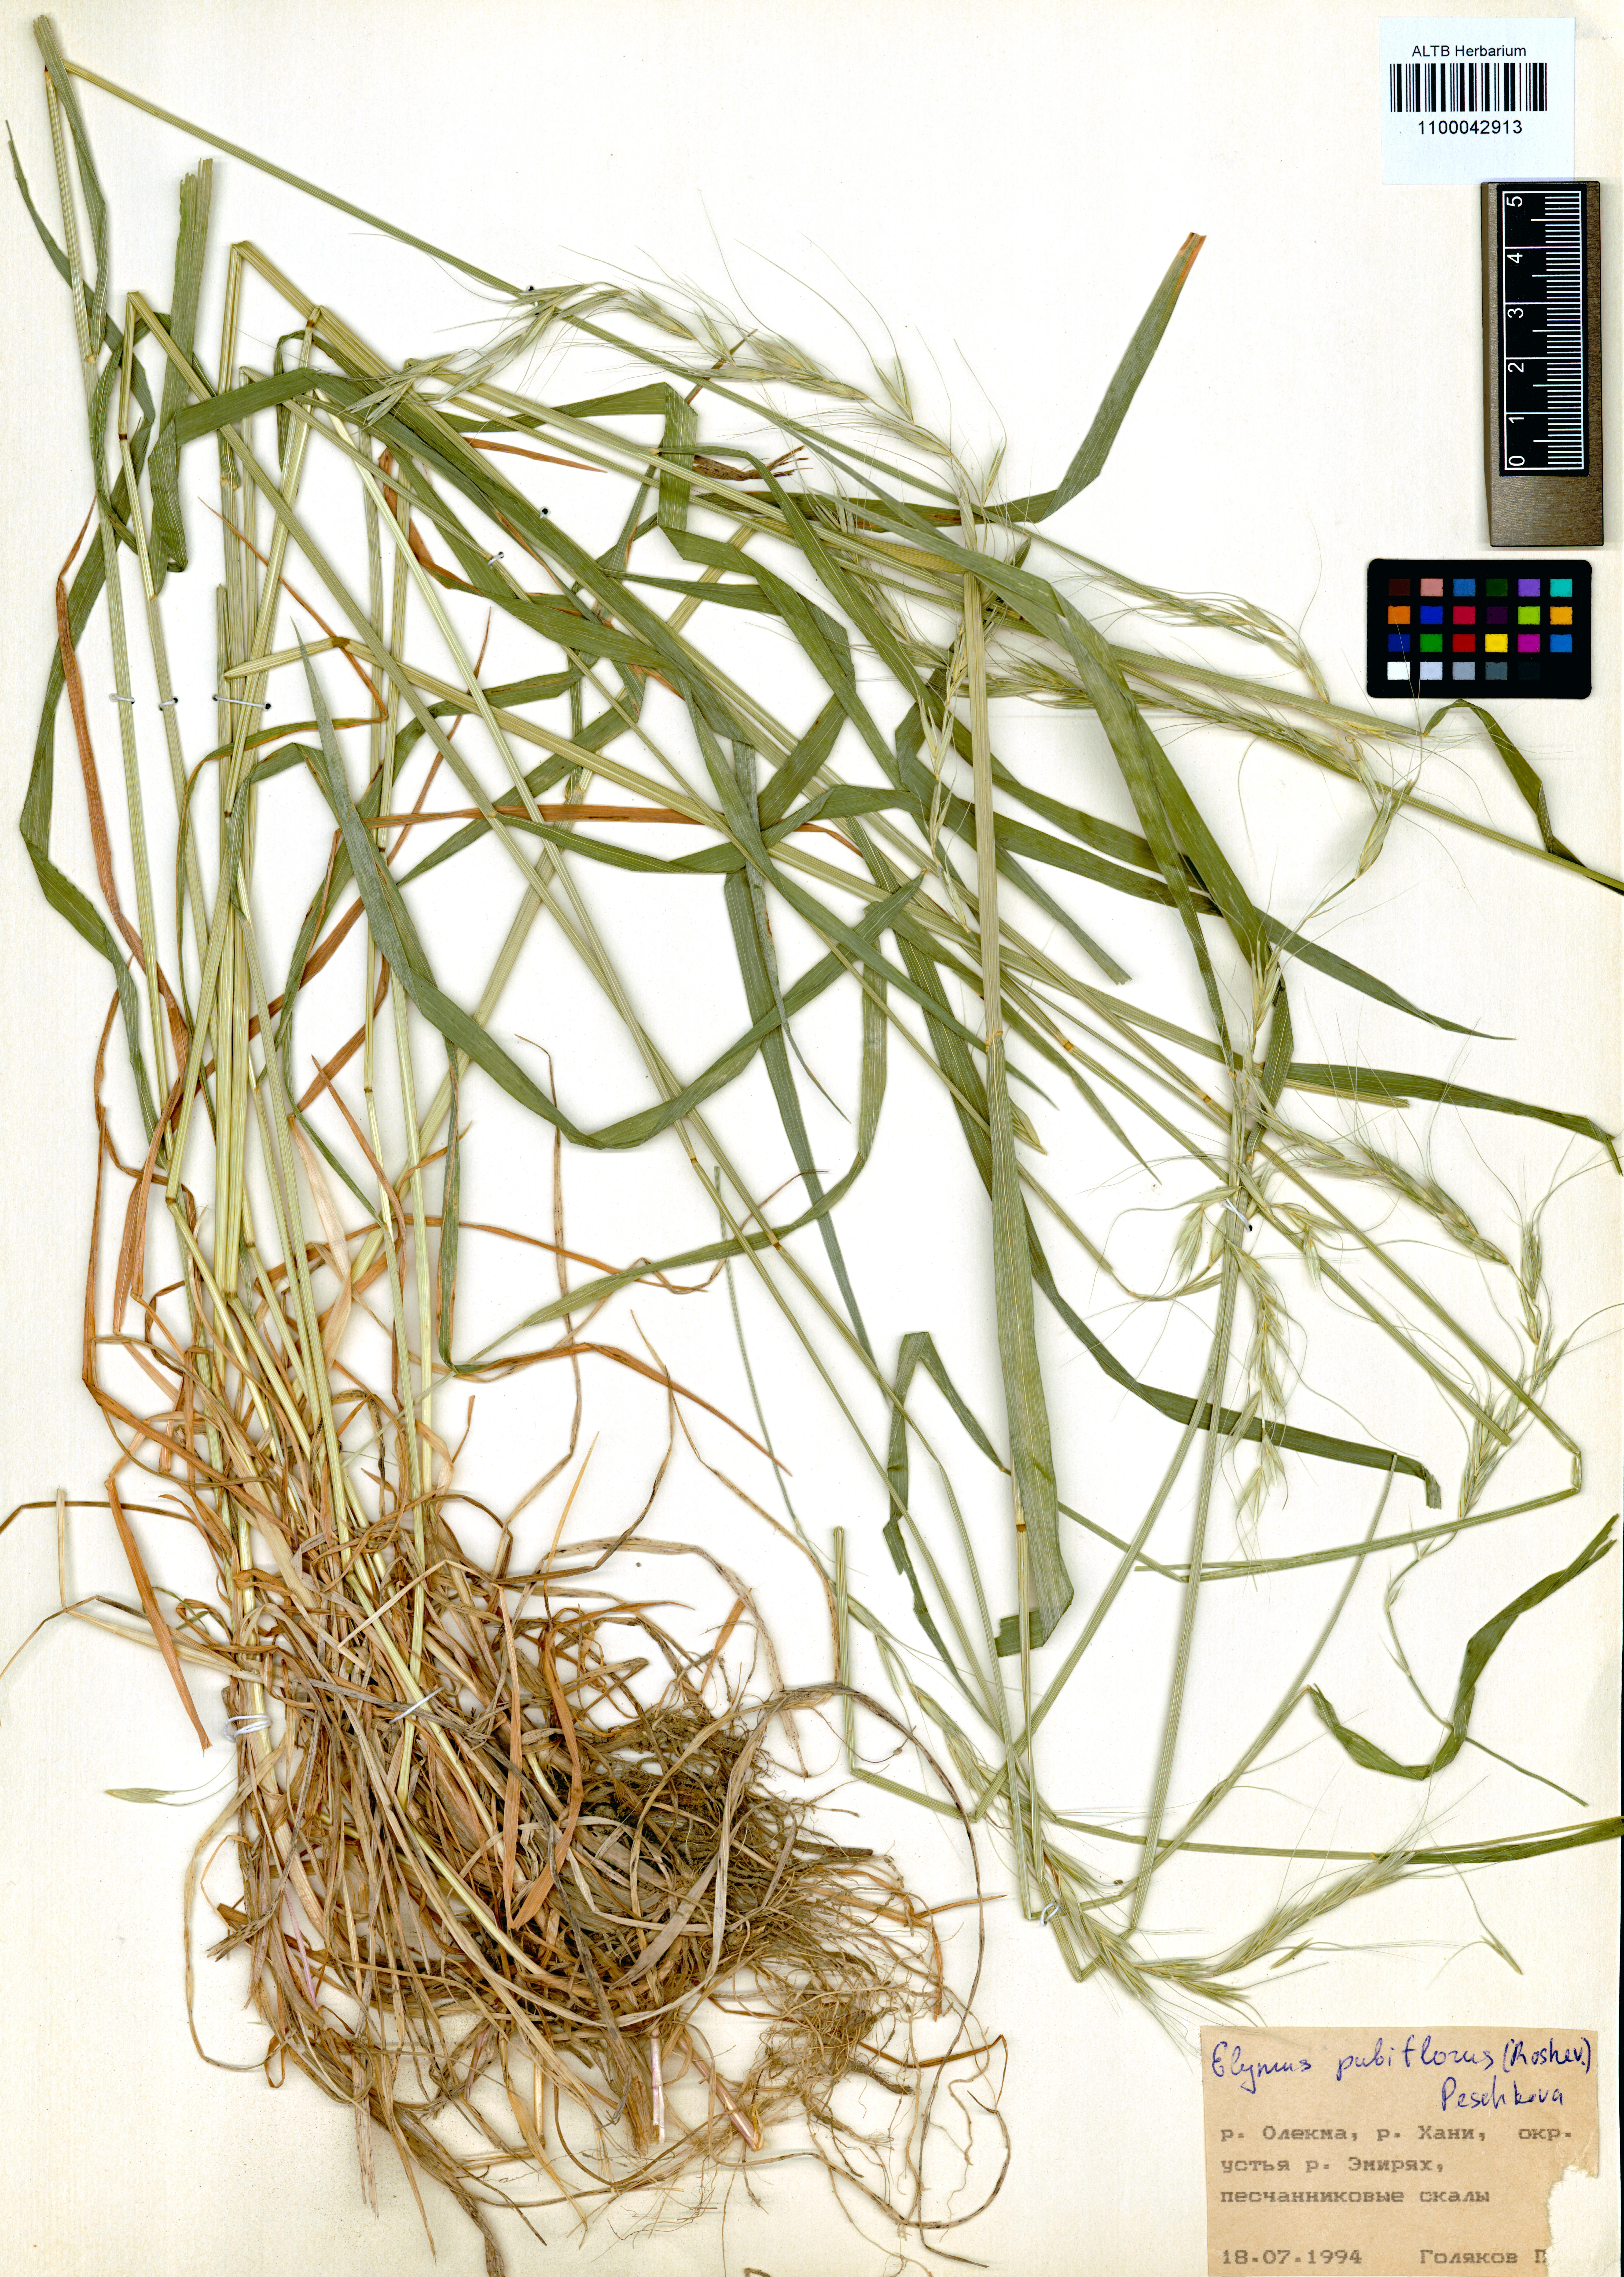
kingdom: Plantae
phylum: Tracheophyta
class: Liliopsida
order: Poales
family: Poaceae
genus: Elymus
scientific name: Elymus confusus
